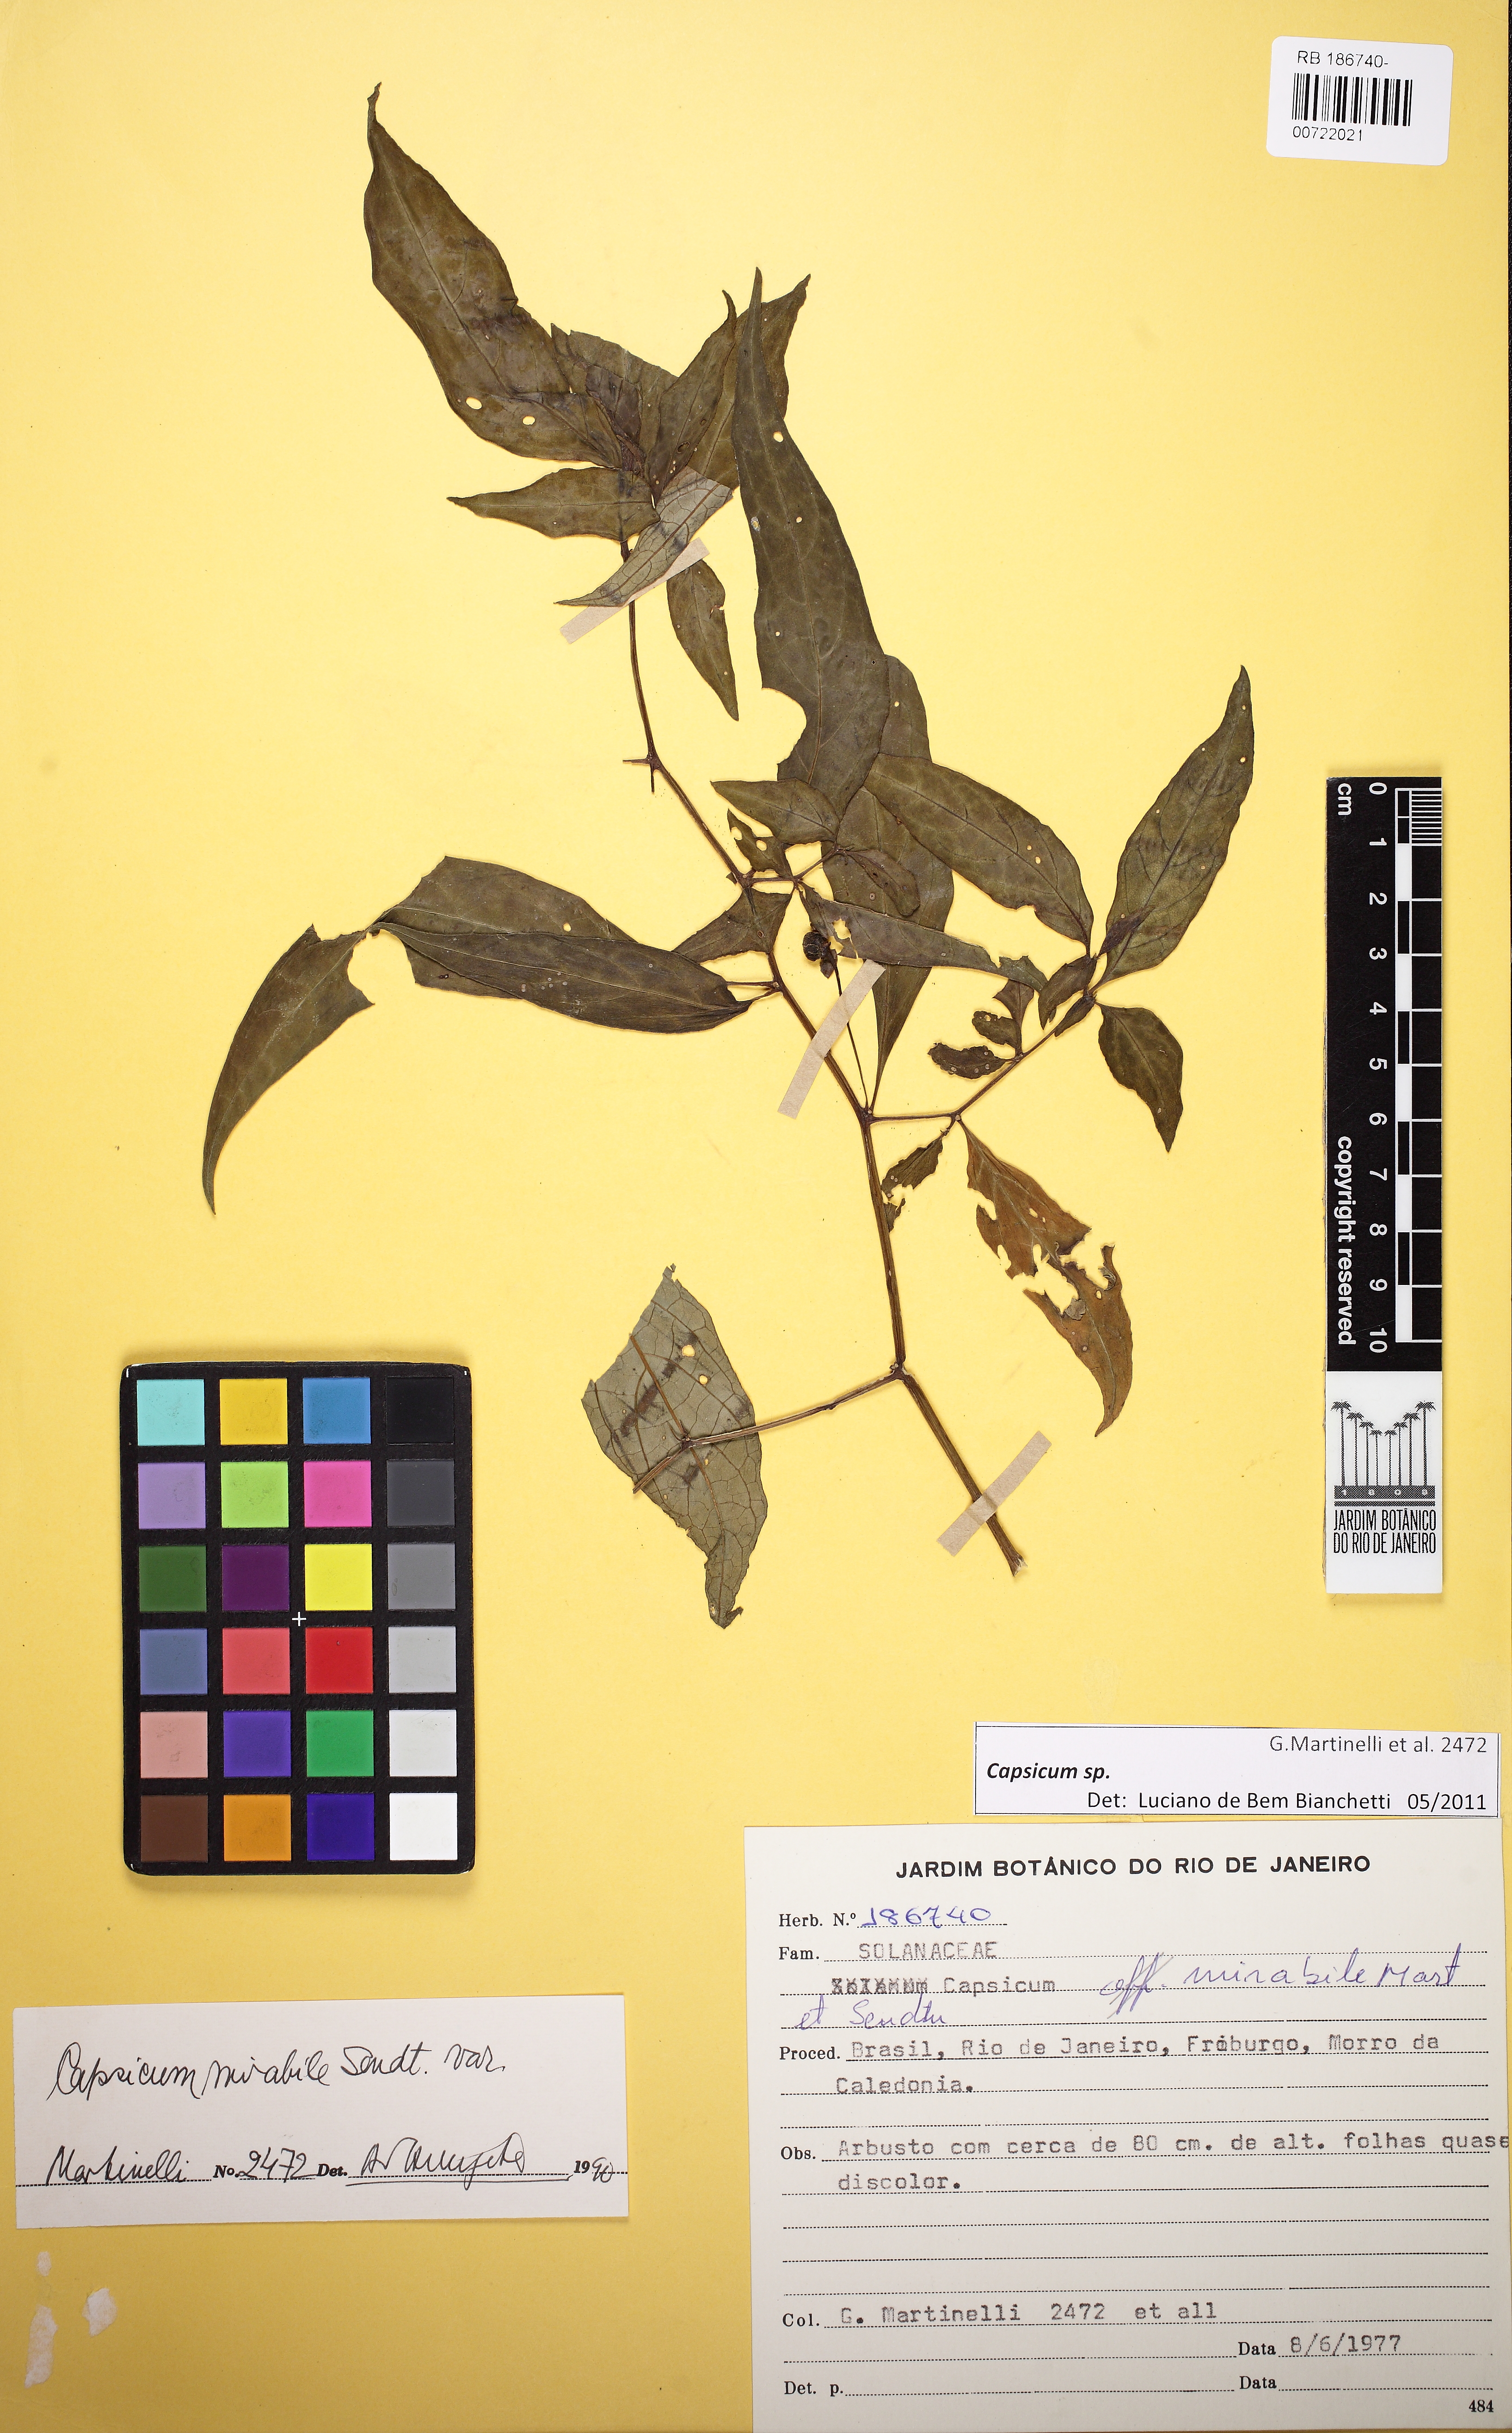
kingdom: Plantae
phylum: Tracheophyta
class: Magnoliopsida
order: Solanales
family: Solanaceae
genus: Capsicum
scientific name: Capsicum
